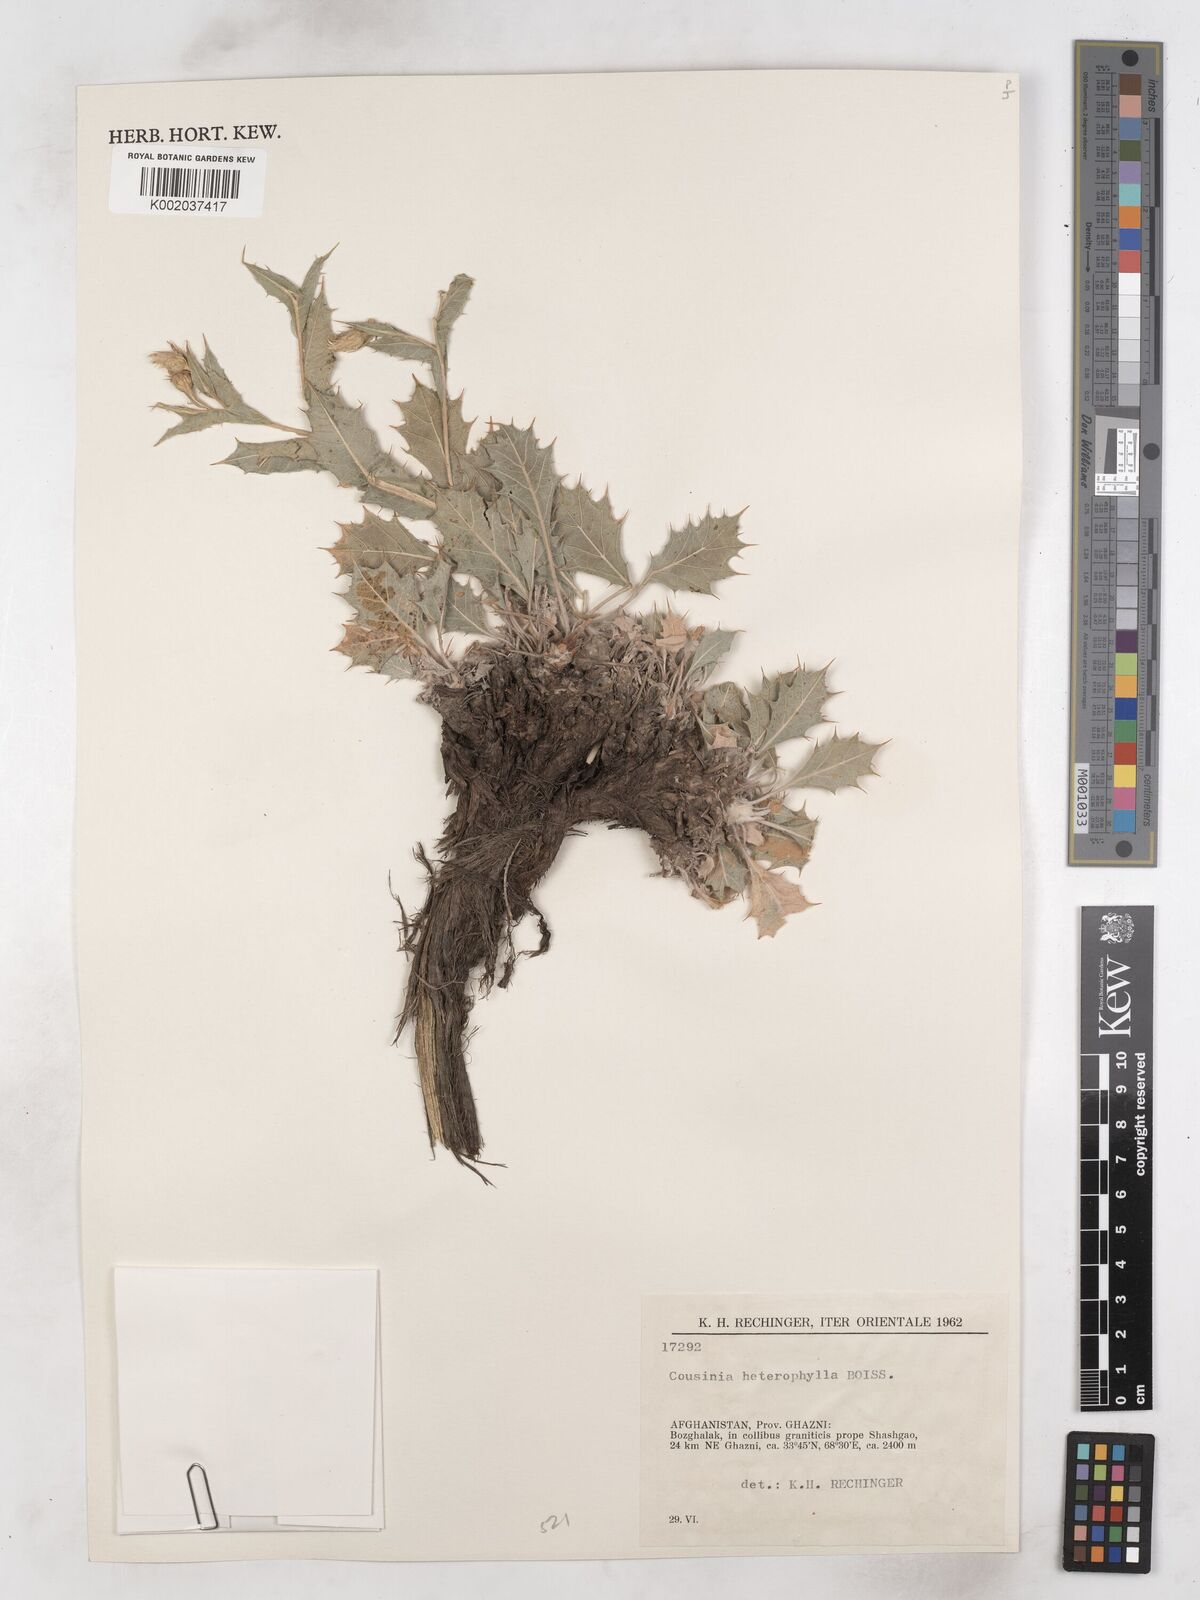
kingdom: Plantae
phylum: Tracheophyta
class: Magnoliopsida
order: Asterales
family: Asteraceae
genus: Cousinia
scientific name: Cousinia heterophylla
